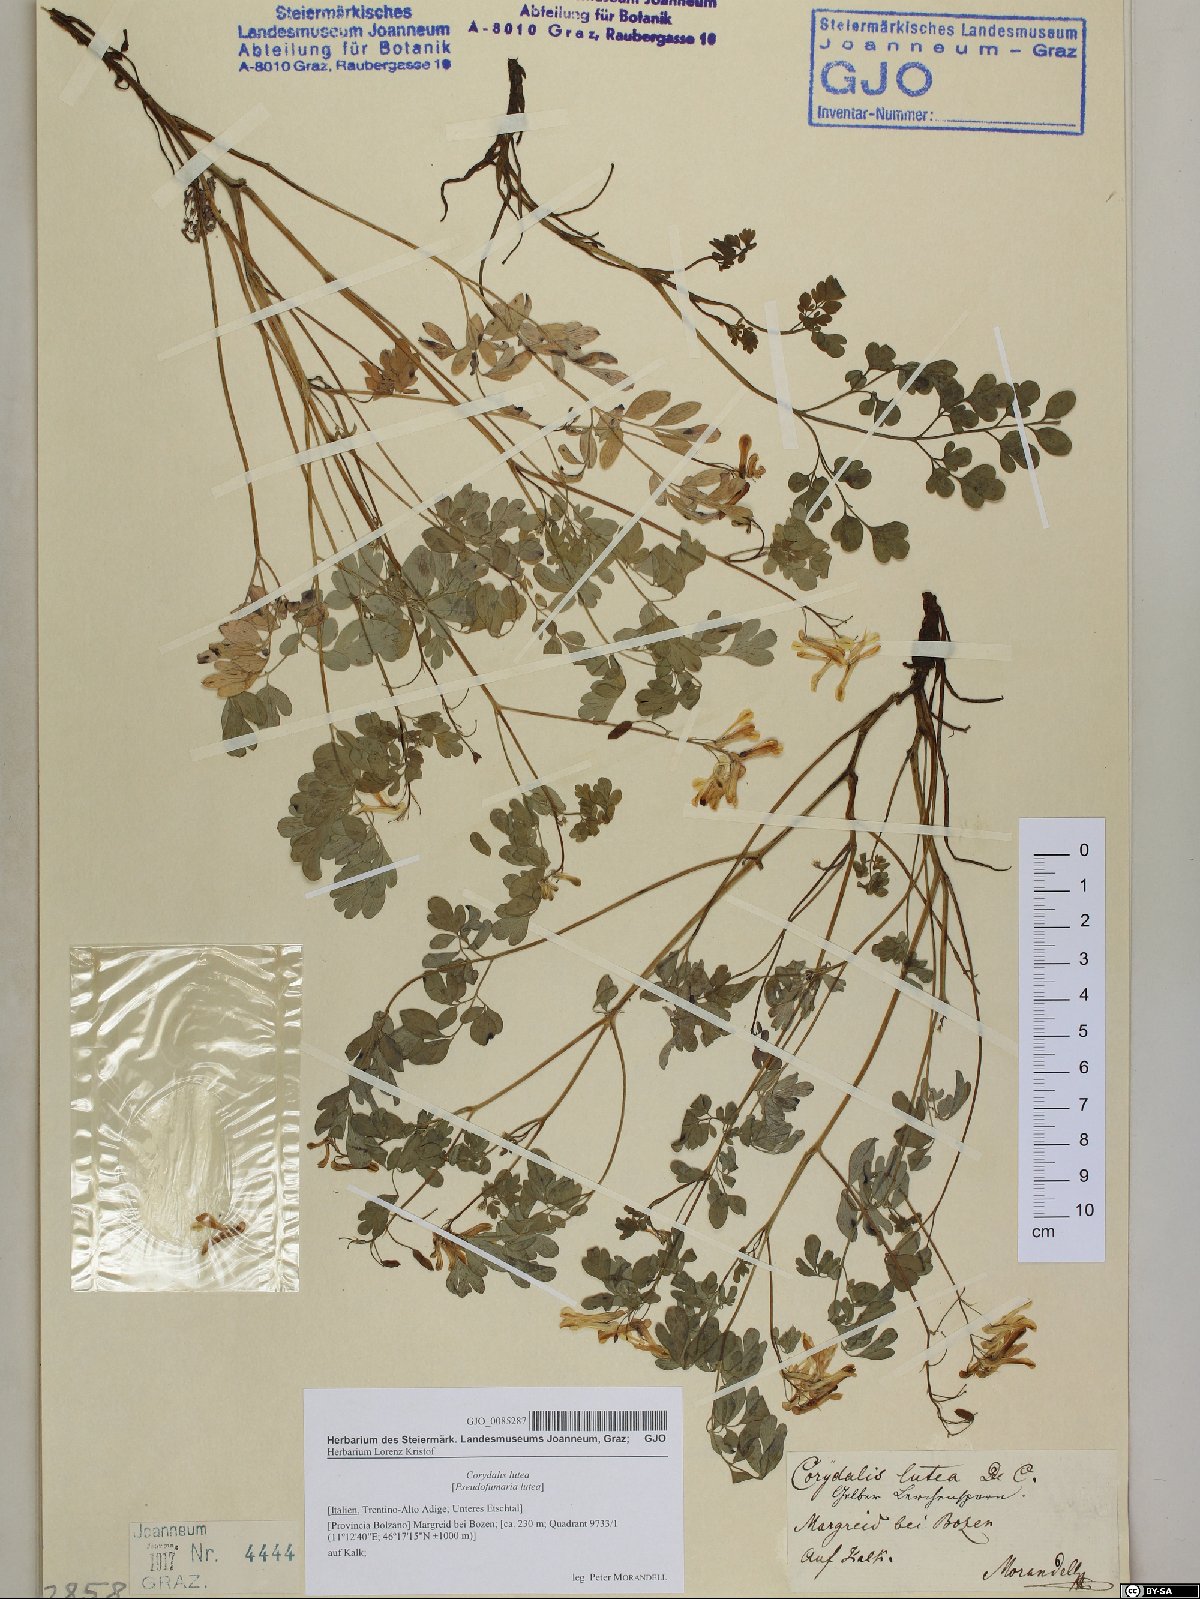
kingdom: Plantae
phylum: Tracheophyta
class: Magnoliopsida
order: Ranunculales
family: Papaveraceae
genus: Pseudofumaria
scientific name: Pseudofumaria lutea
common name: Yellow corydalis
